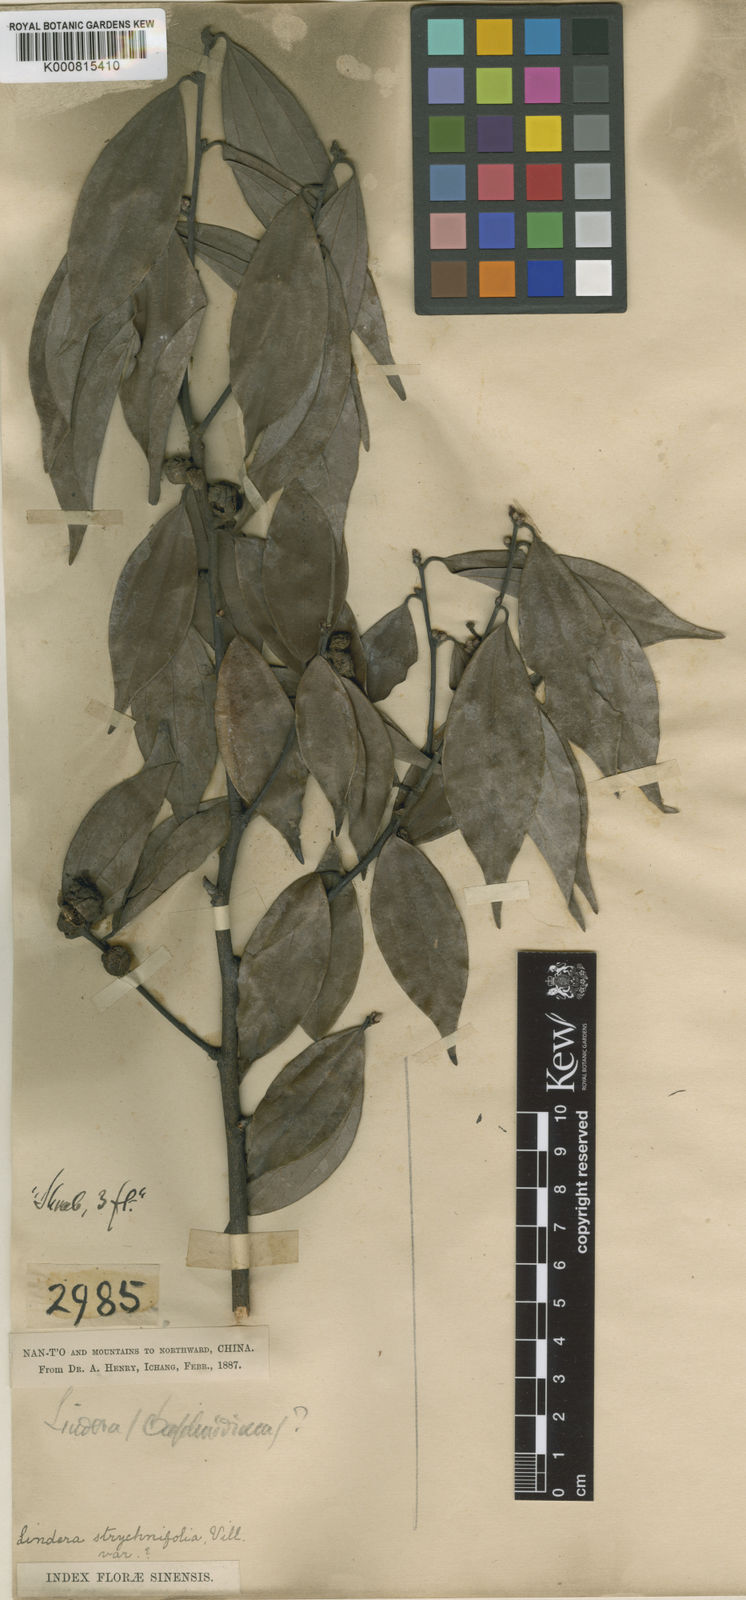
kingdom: Plantae
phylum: Tracheophyta
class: Magnoliopsida
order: Laurales
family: Lauraceae
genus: Lindera
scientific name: Lindera aggregata
